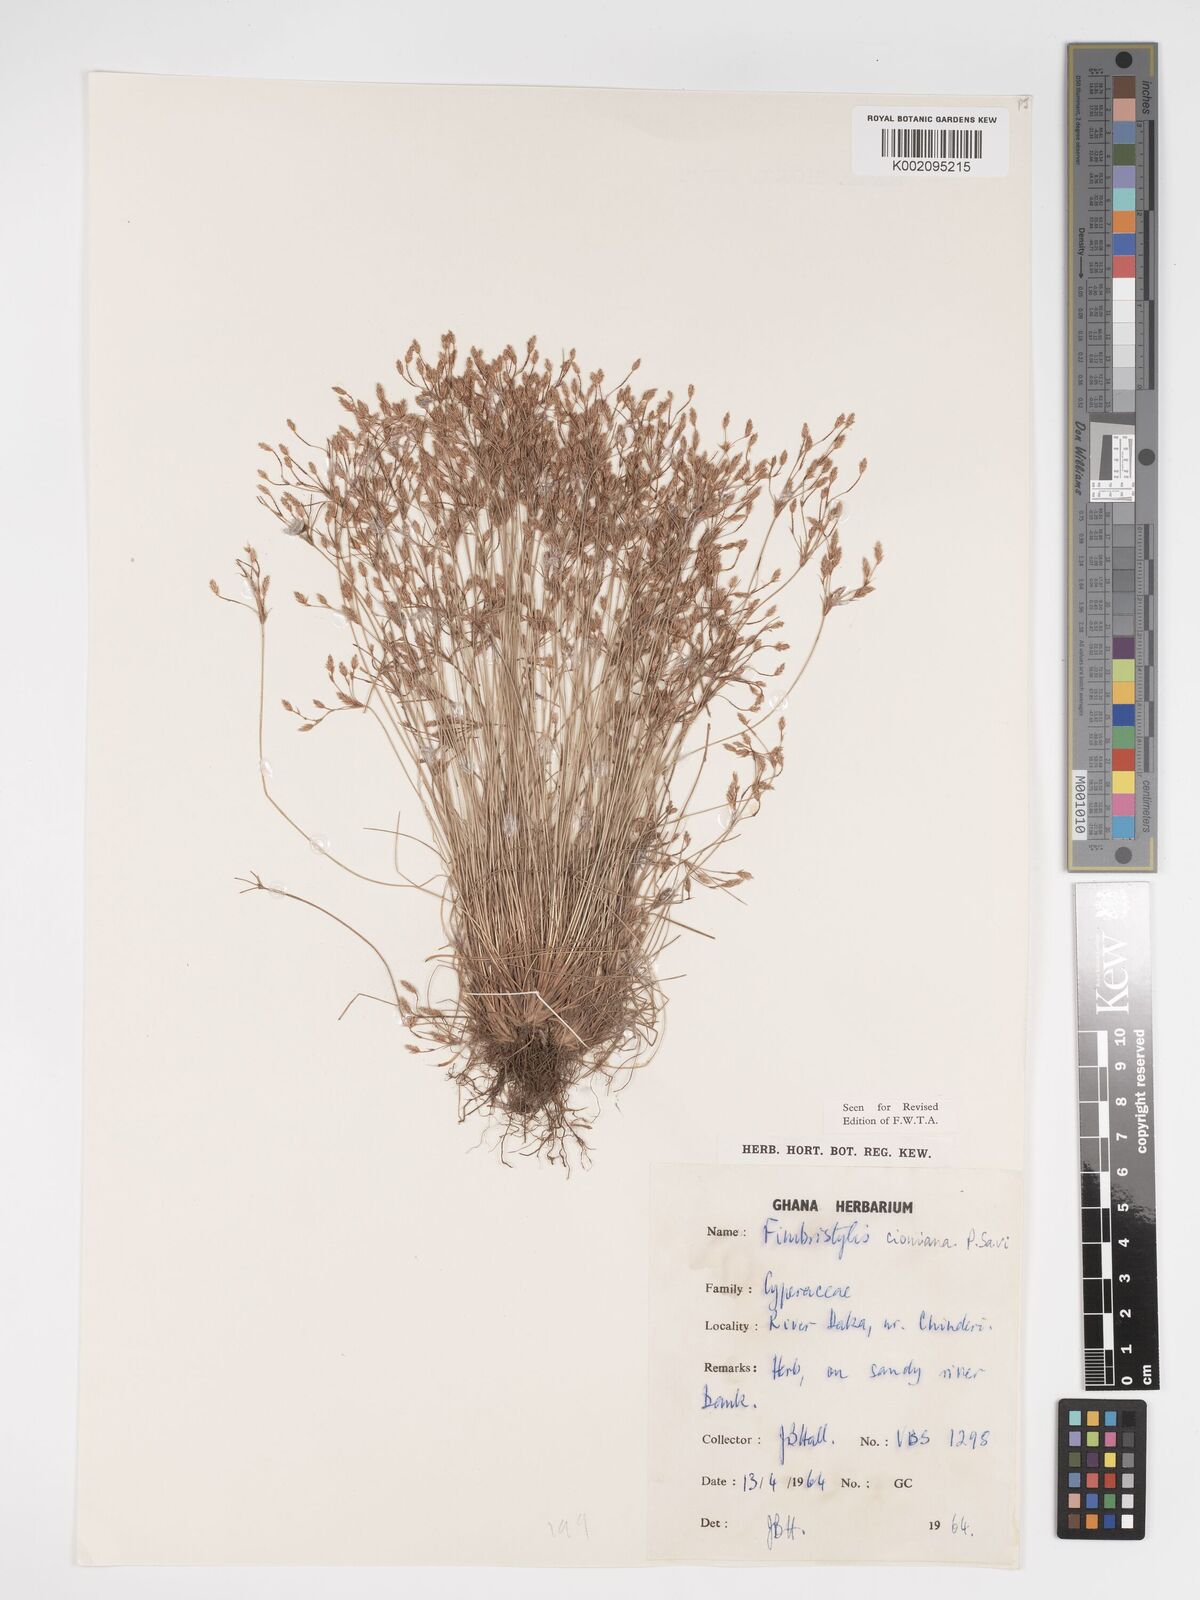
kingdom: Plantae
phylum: Tracheophyta
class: Liliopsida
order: Poales
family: Cyperaceae
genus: Bulbostylis
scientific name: Bulbostylis cioniana
